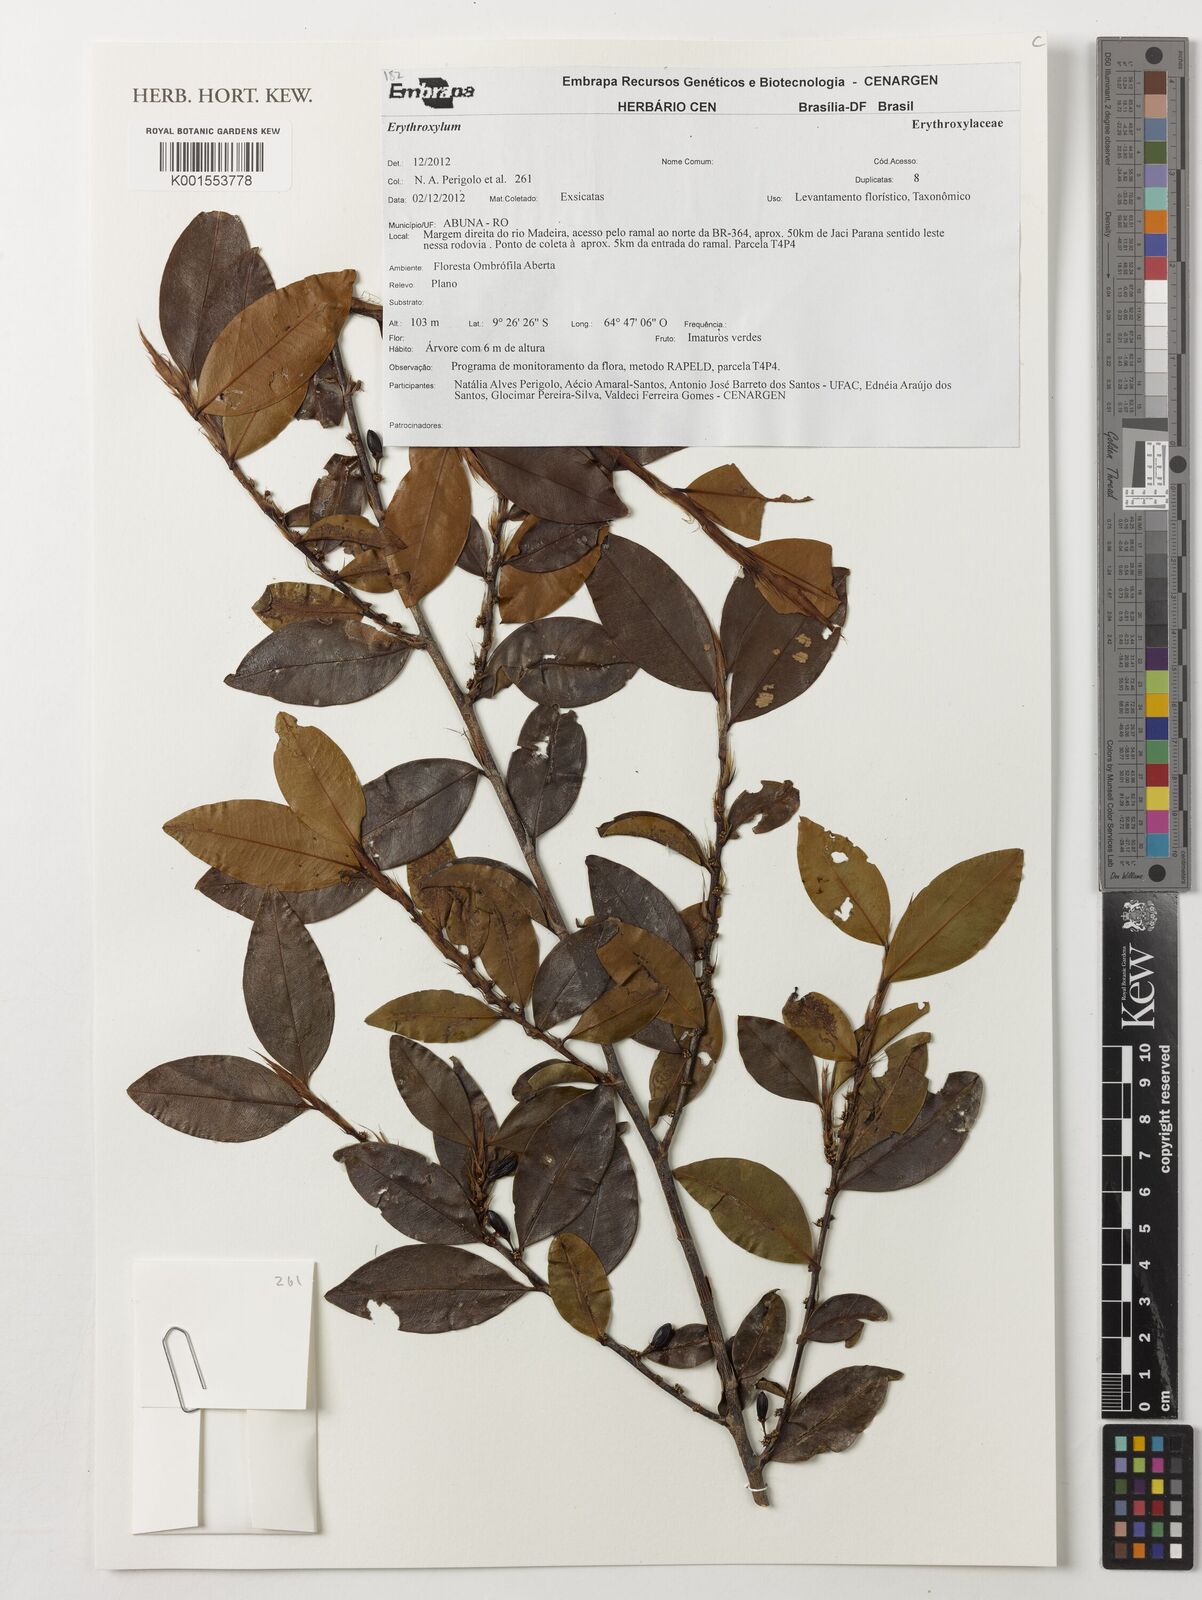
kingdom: Plantae
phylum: Tracheophyta
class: Magnoliopsida
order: Malpighiales
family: Erythroxylaceae
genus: Erythroxylum
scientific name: Erythroxylum
